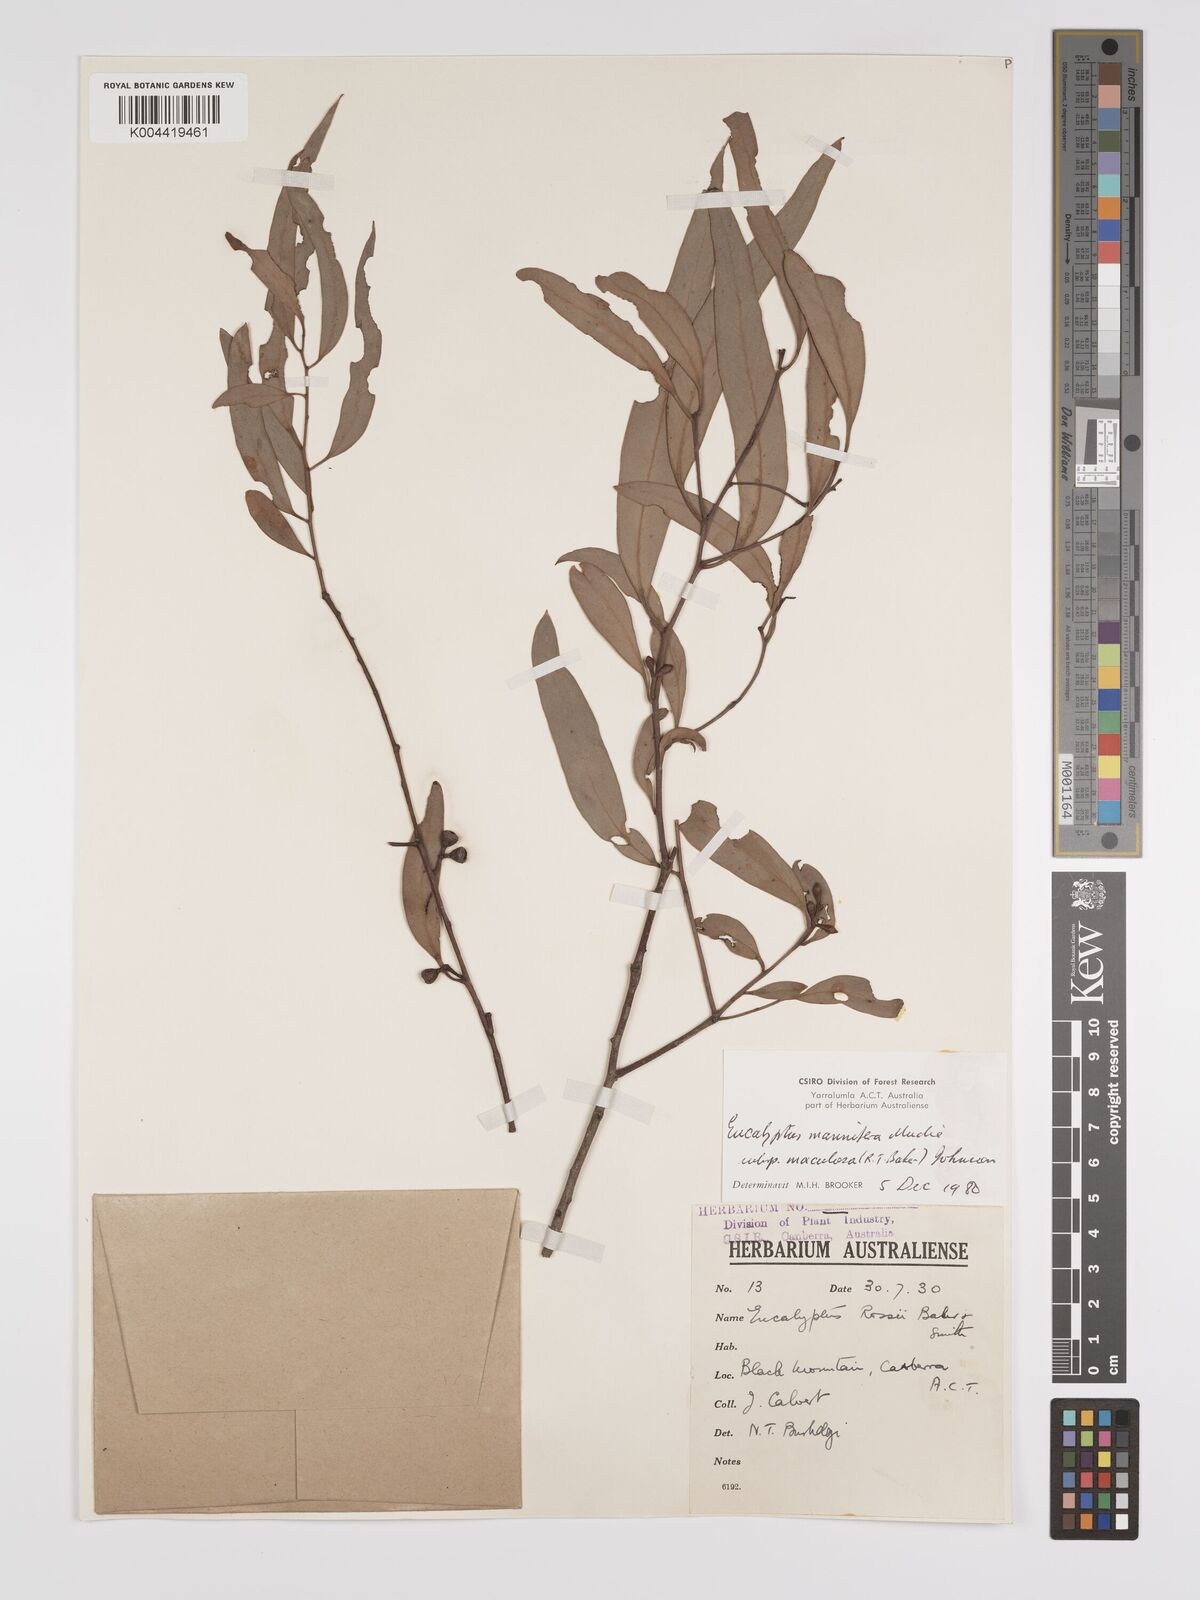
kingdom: Plantae
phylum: Tracheophyta
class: Magnoliopsida
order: Myrtales
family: Myrtaceae
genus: Eucalyptus
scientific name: Eucalyptus mannifera
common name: Manna gum
